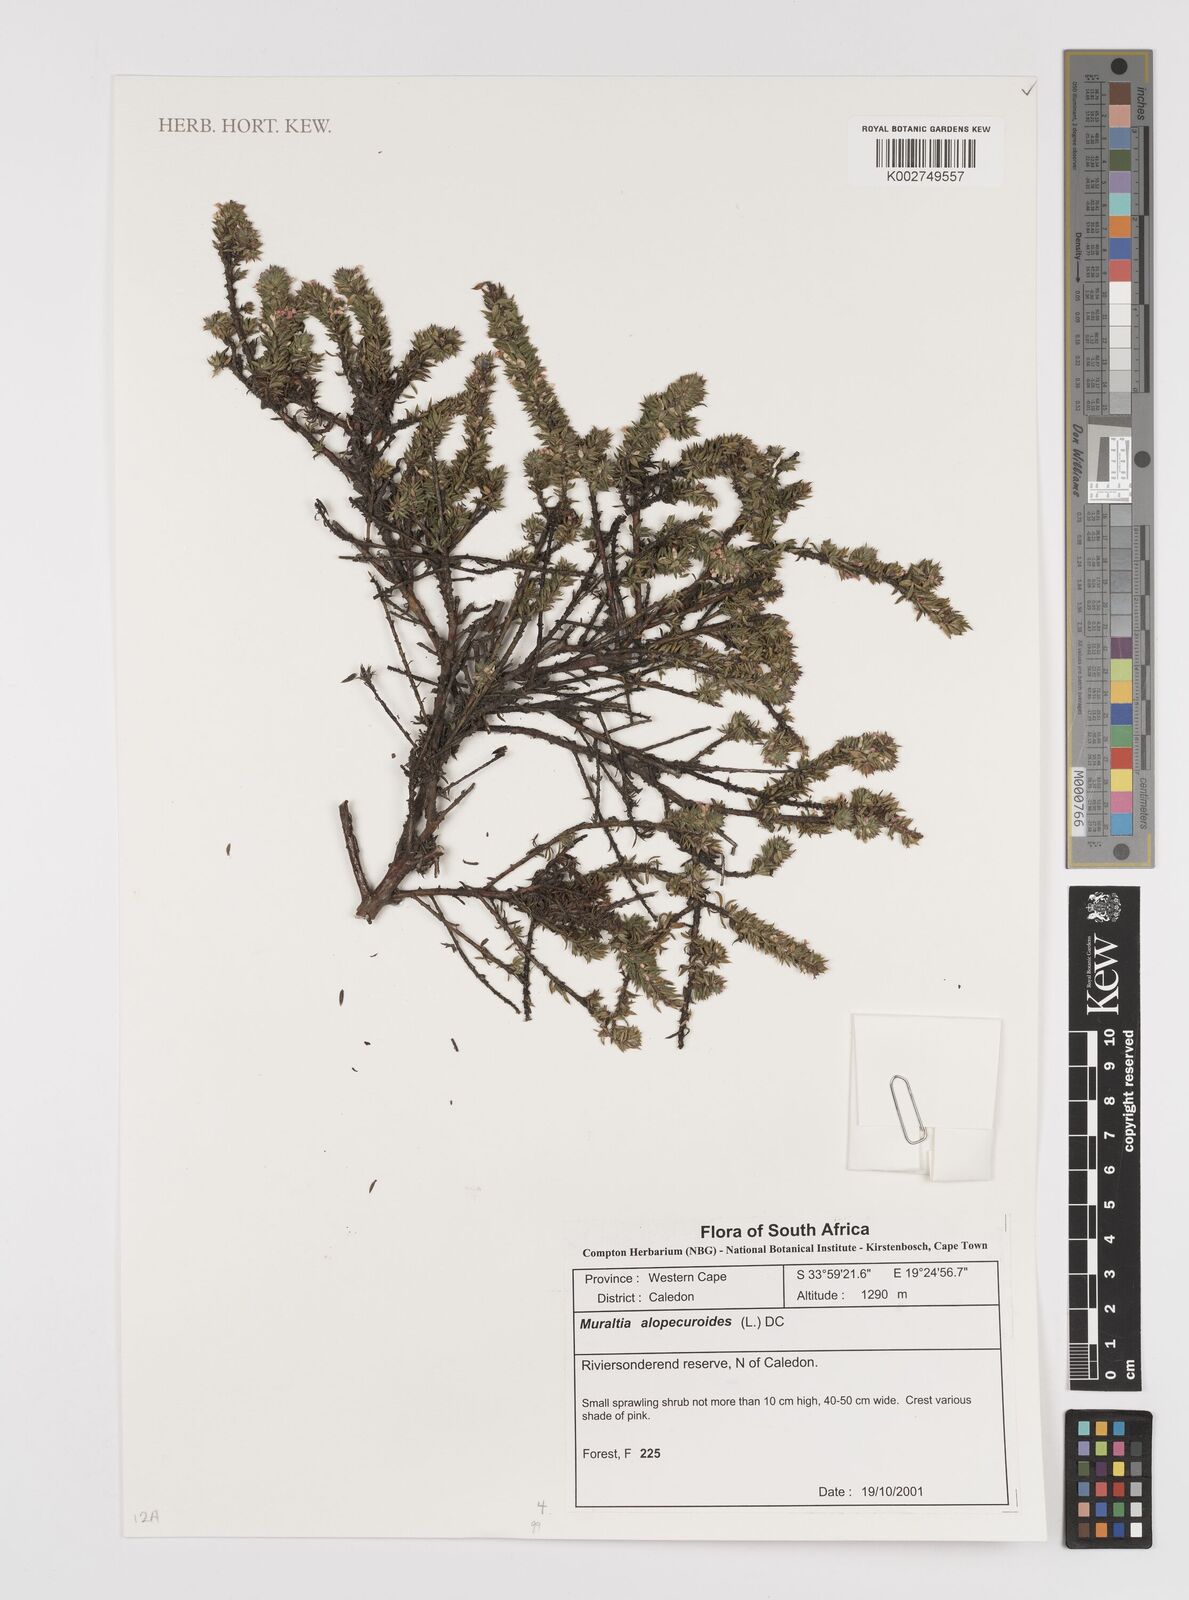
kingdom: Plantae
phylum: Tracheophyta
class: Magnoliopsida
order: Fabales
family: Polygalaceae
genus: Muraltia
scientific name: Muraltia alopecuroides
